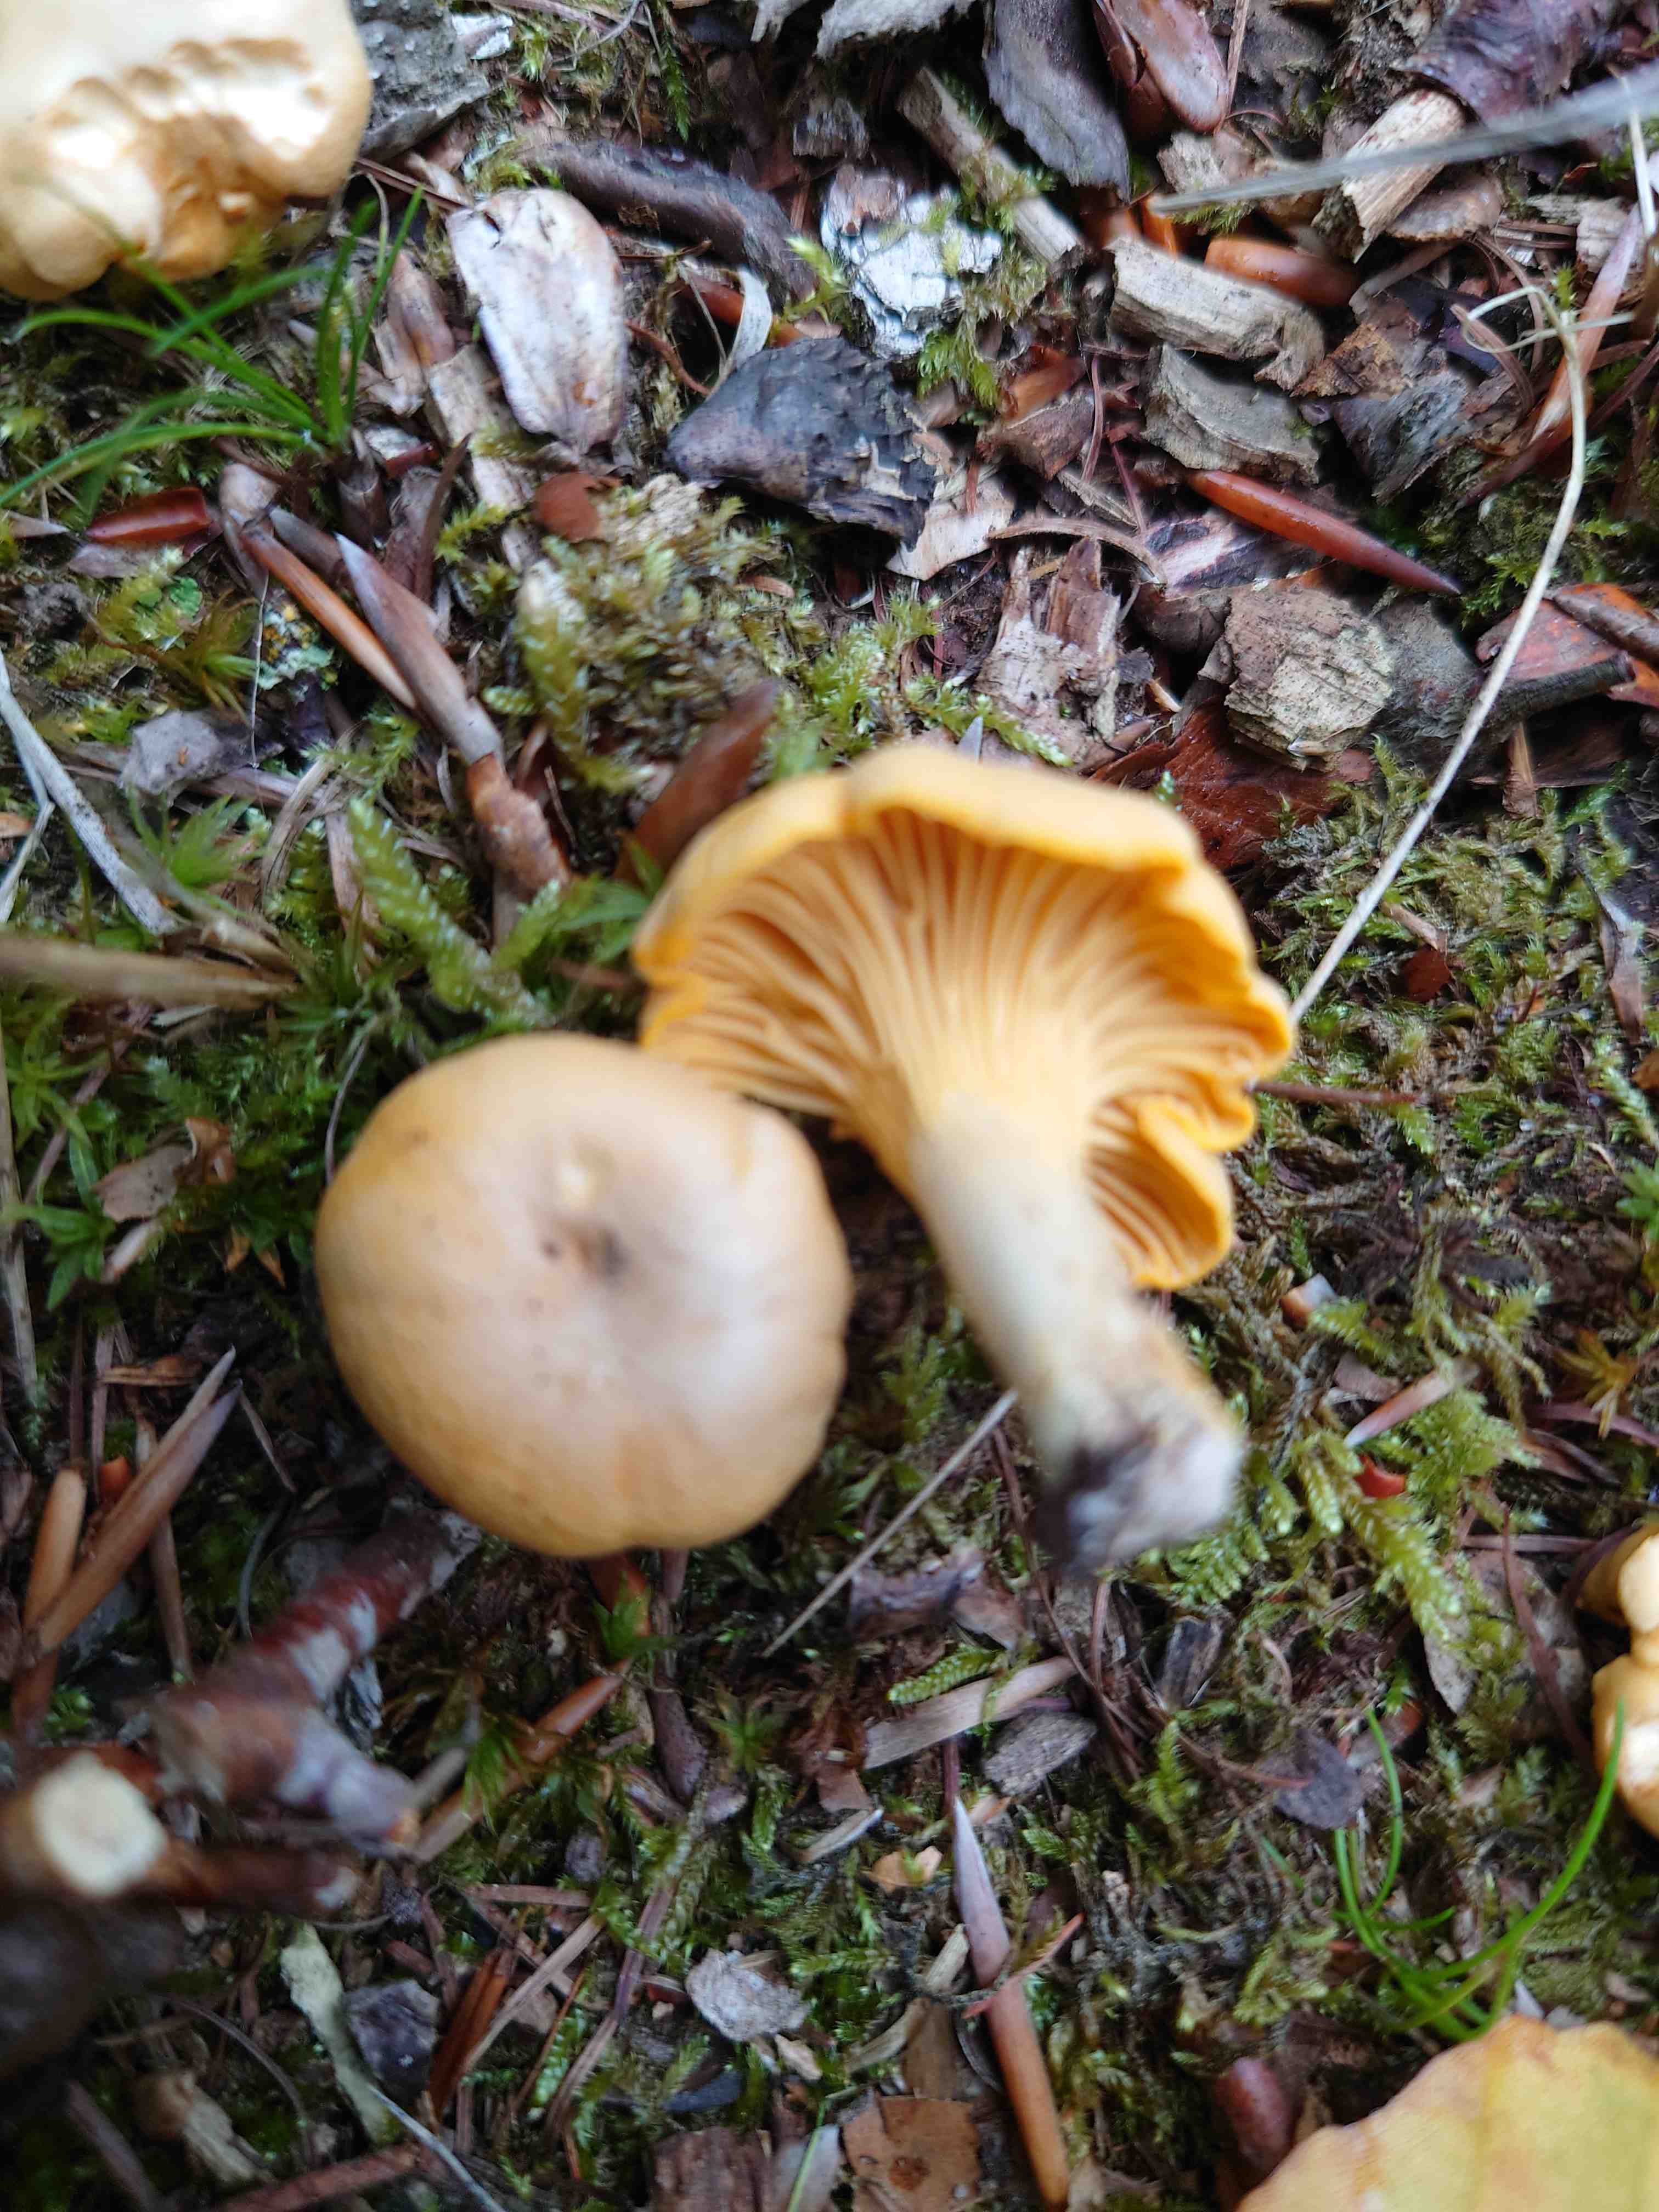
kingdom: Fungi
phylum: Basidiomycota
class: Agaricomycetes
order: Cantharellales
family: Hydnaceae
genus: Cantharellus
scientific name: Cantharellus
